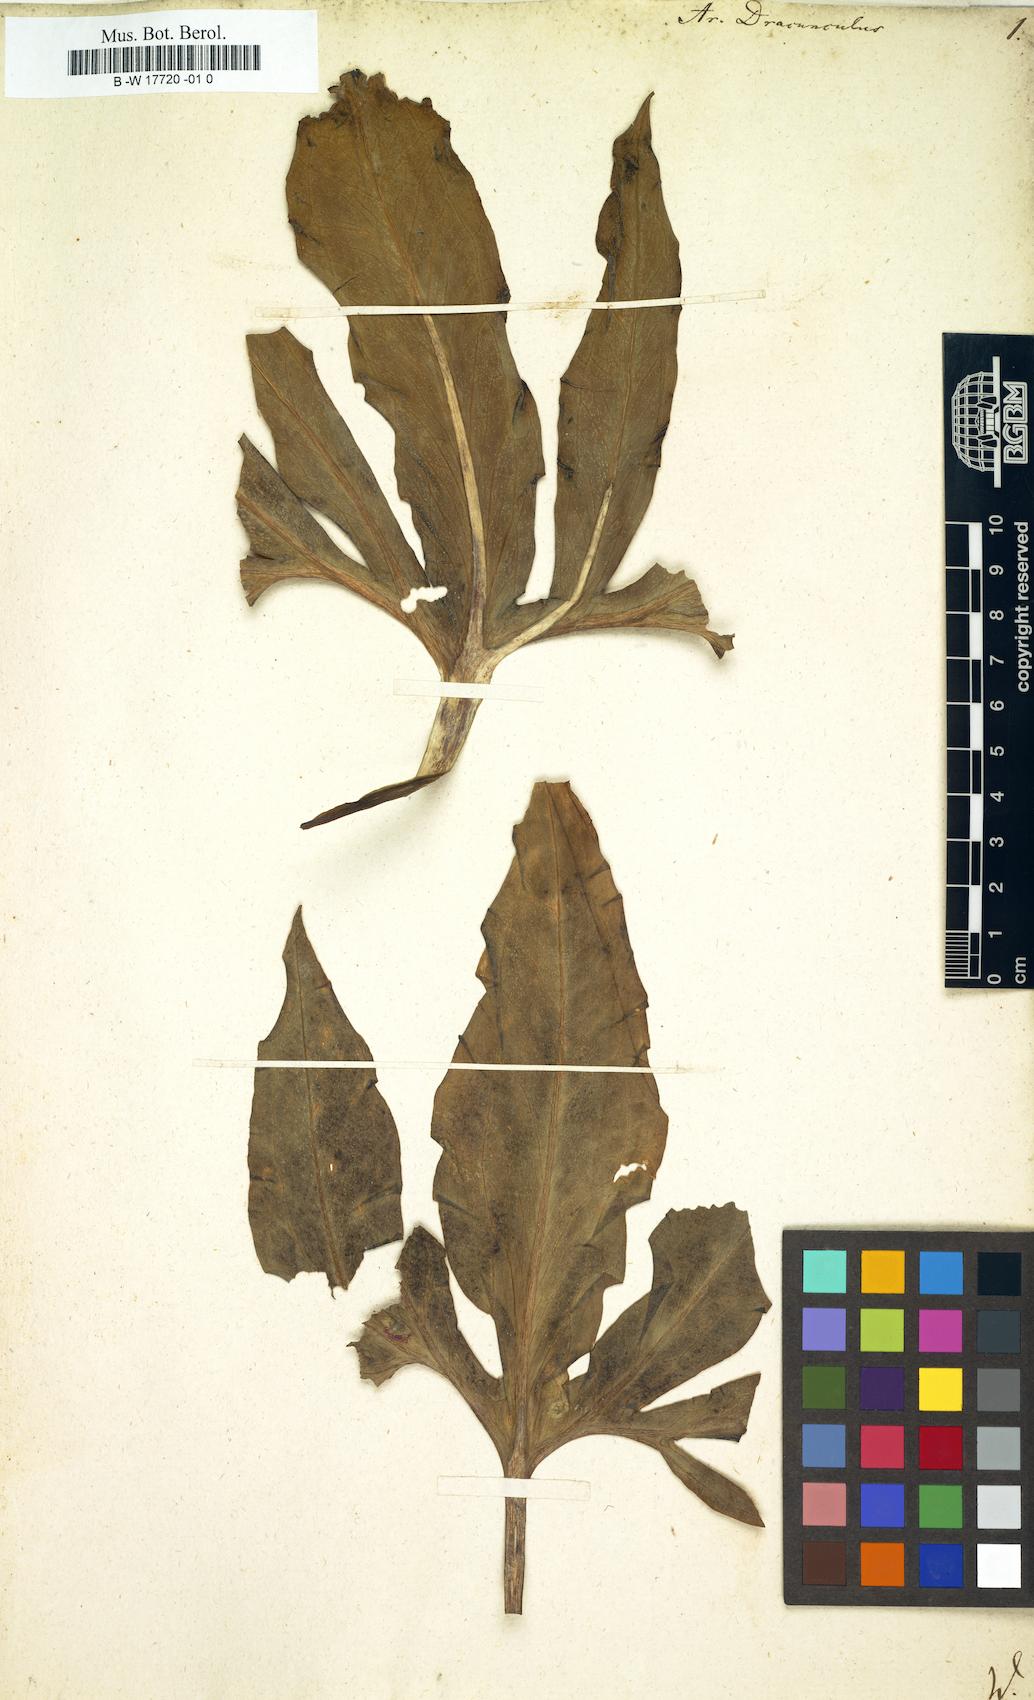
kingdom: Plantae
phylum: Tracheophyta
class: Liliopsida
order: Alismatales
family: Araceae
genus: Arum
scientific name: Arum dracunculus
